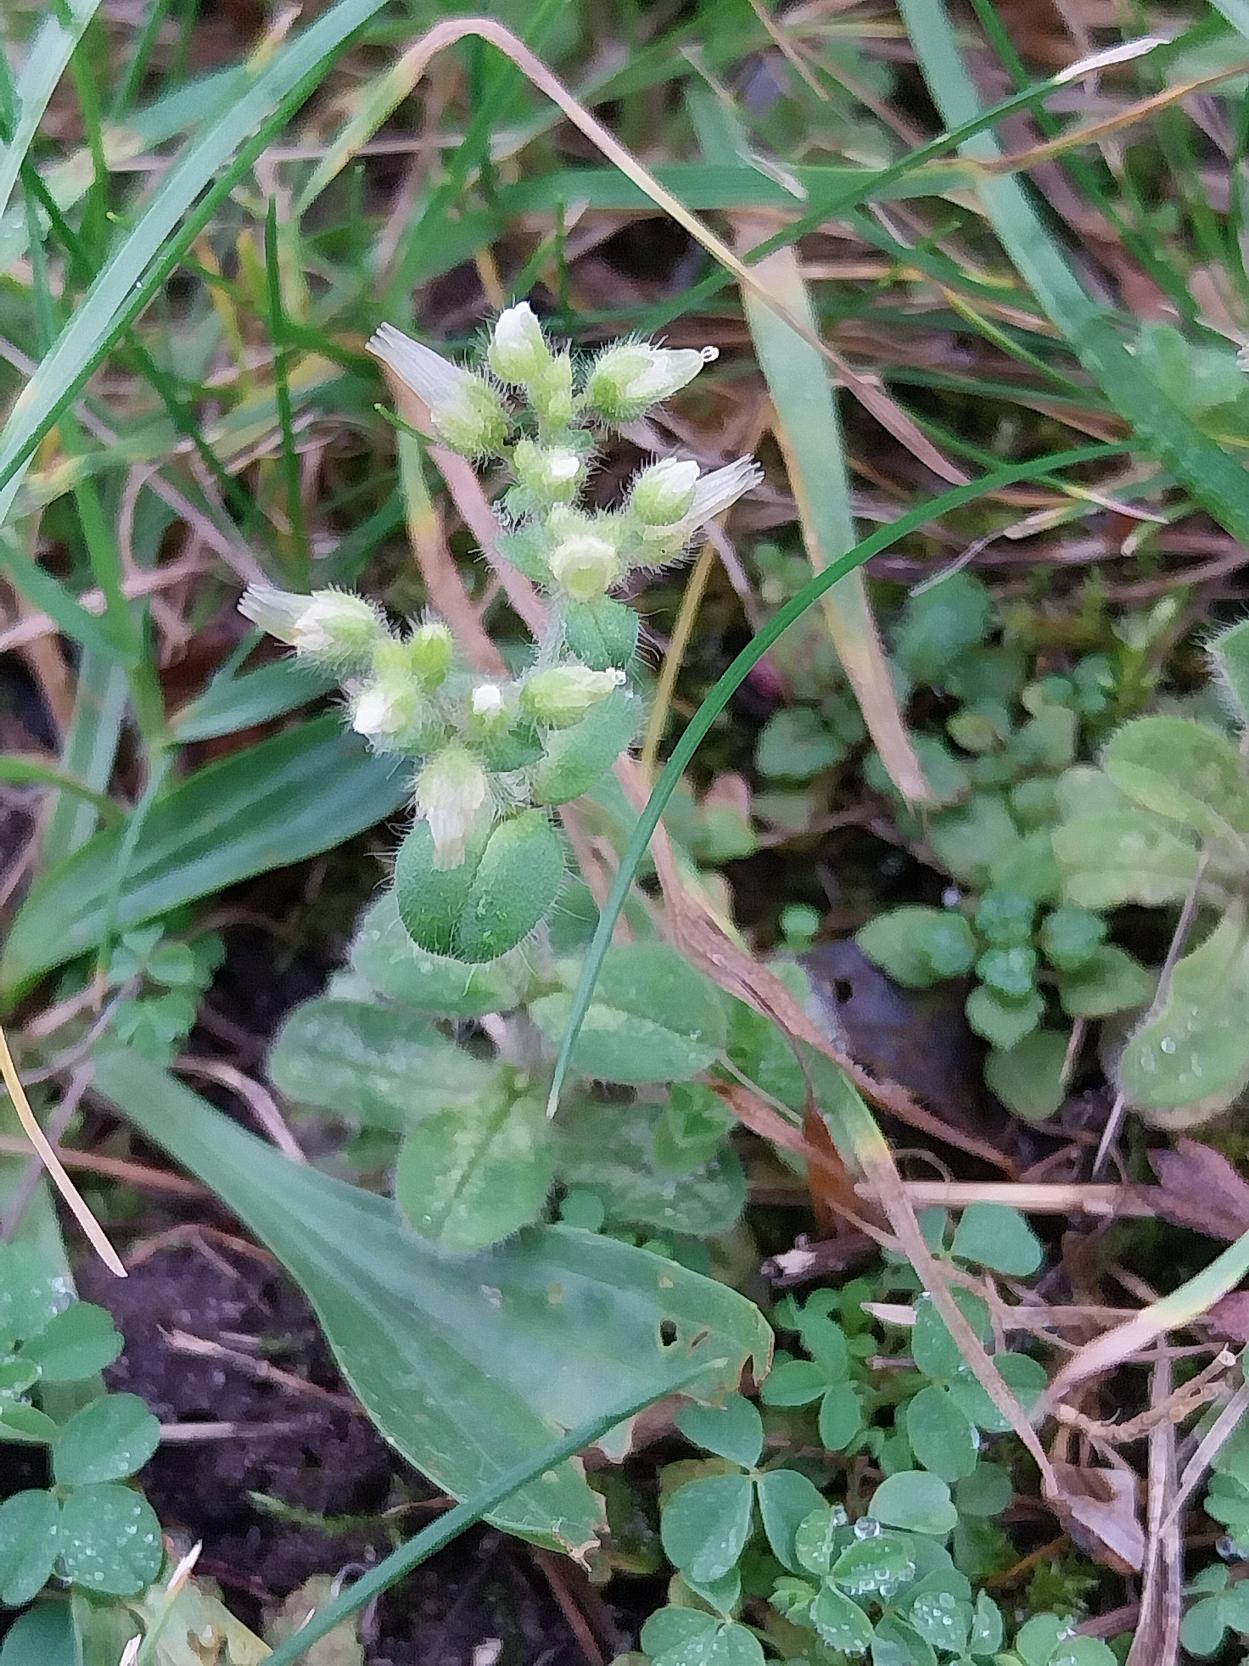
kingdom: Plantae
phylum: Tracheophyta
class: Magnoliopsida
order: Caryophyllales
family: Caryophyllaceae
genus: Cerastium
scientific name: Cerastium glomeratum
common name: Opret hønsetarm
